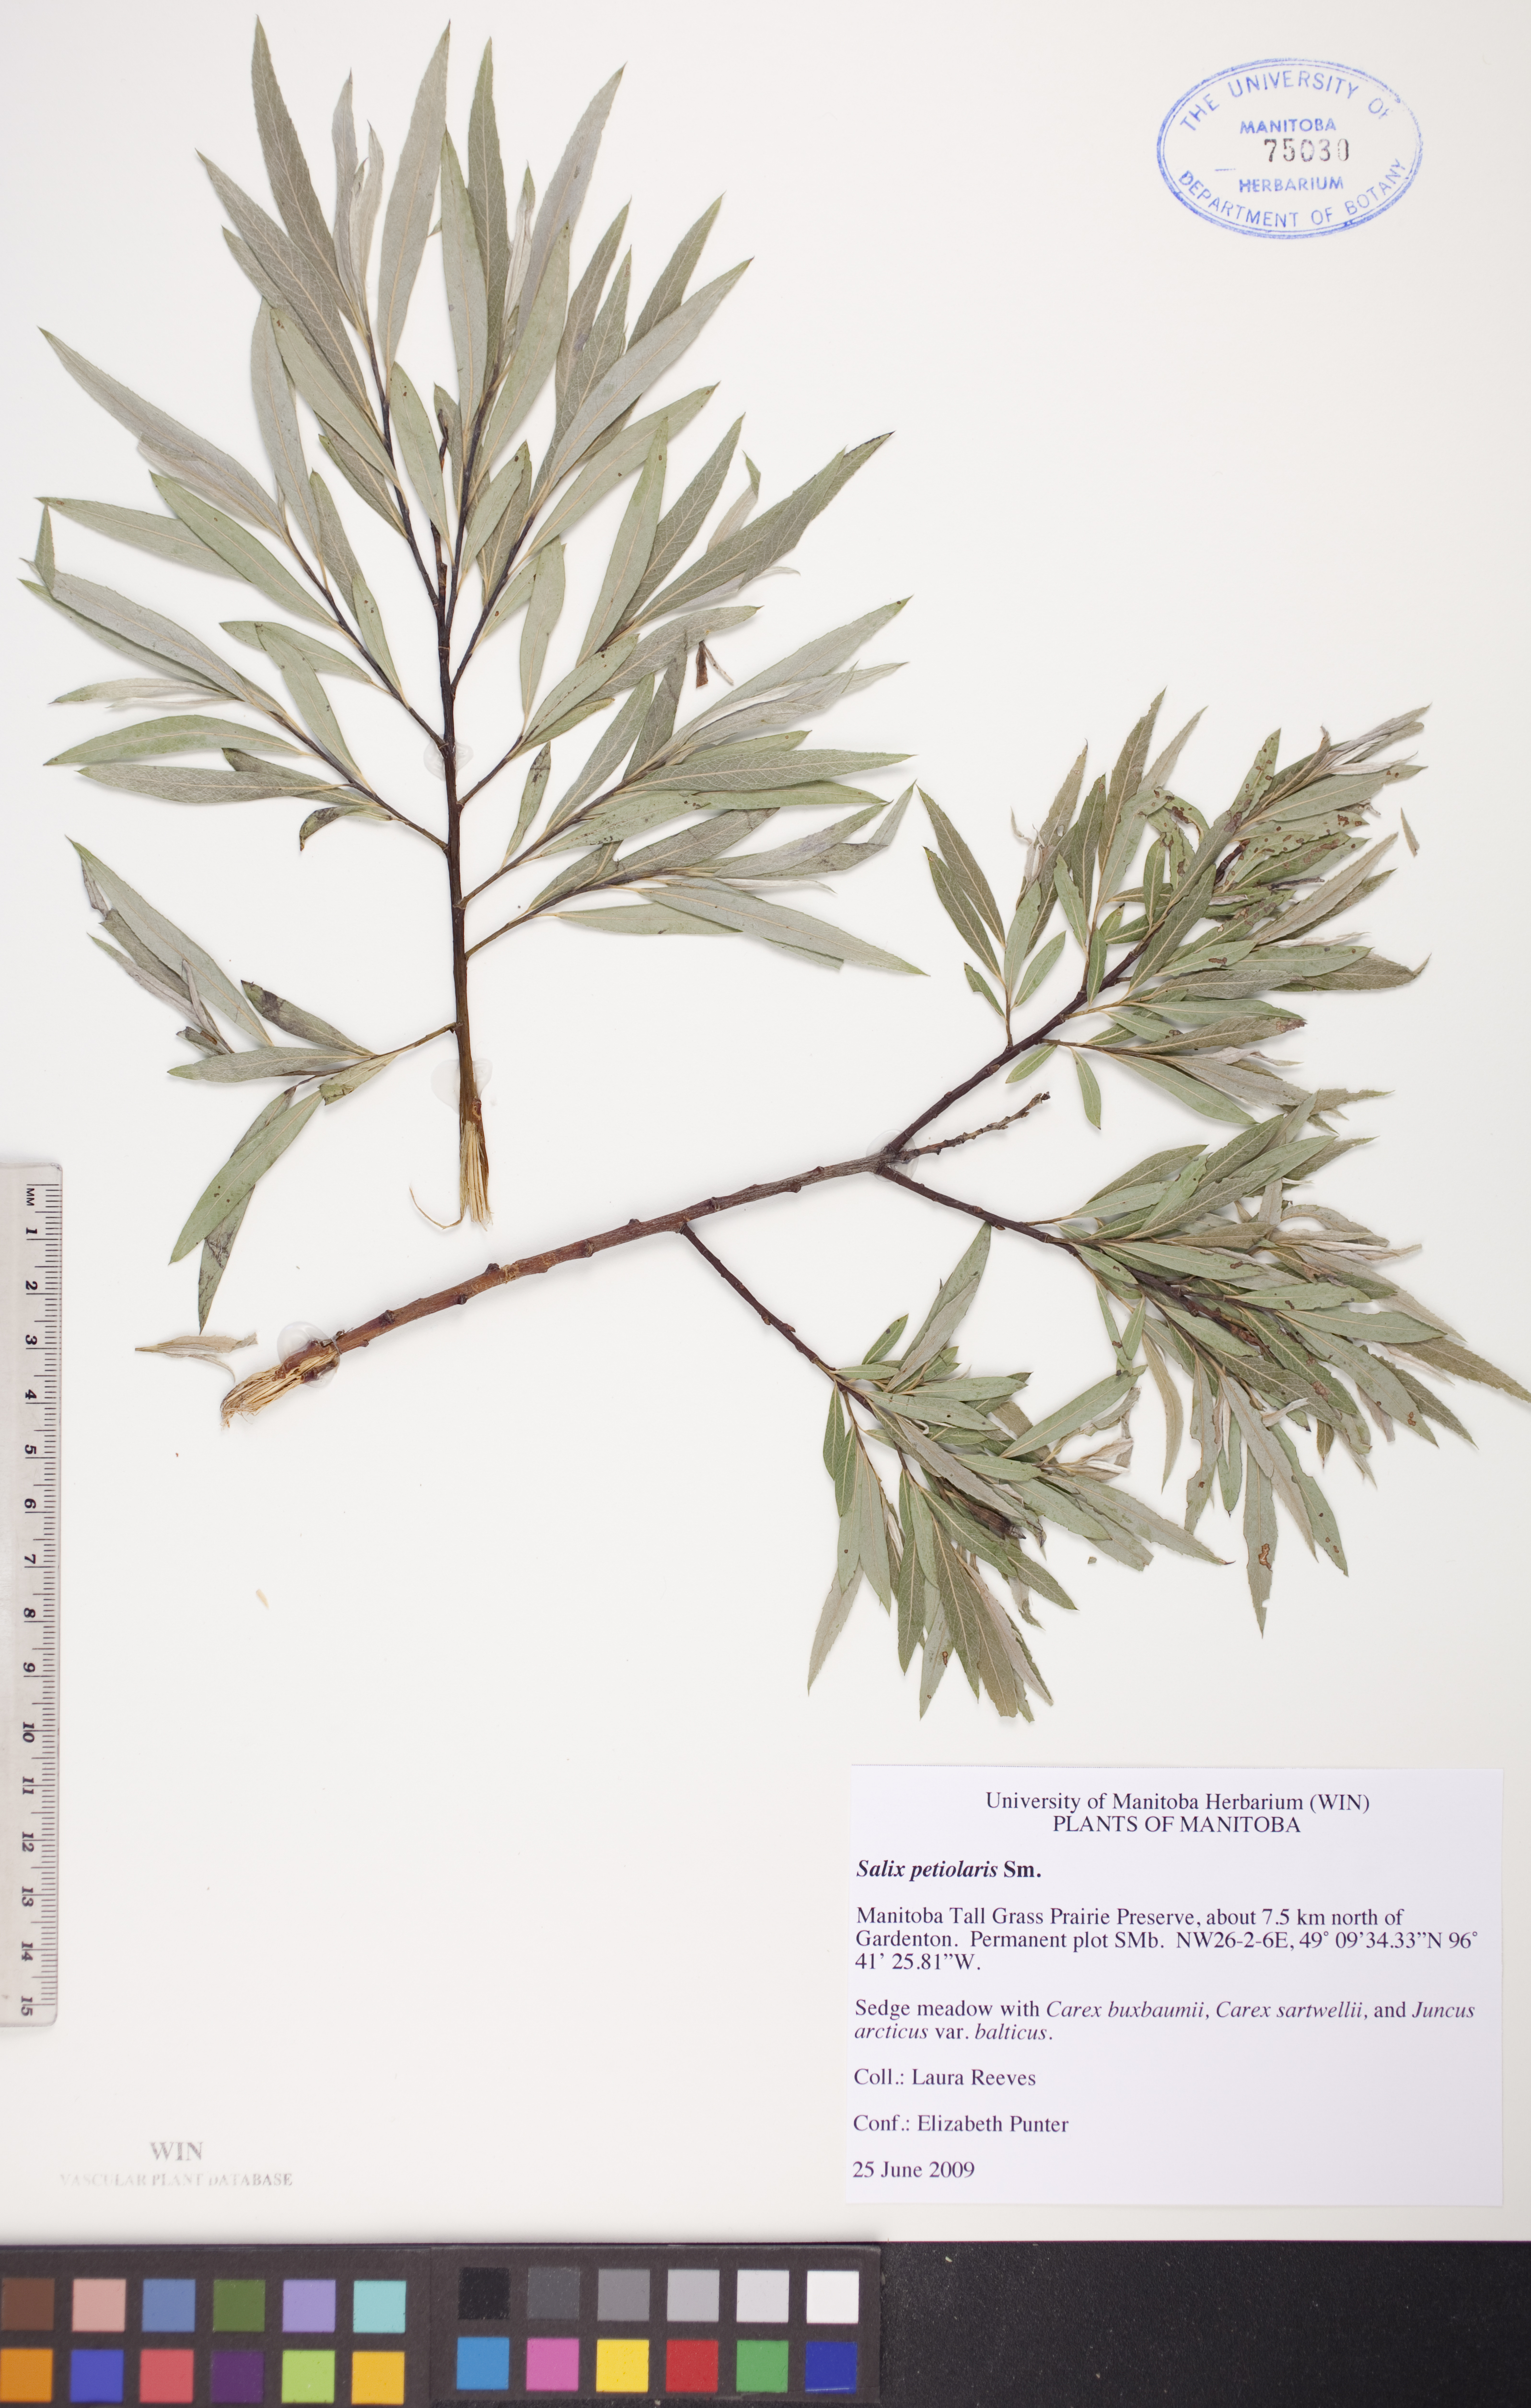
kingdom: Plantae
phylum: Tracheophyta
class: Magnoliopsida
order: Malpighiales
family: Salicaceae
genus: Salix
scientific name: Salix petiolaris
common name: Slender willow
